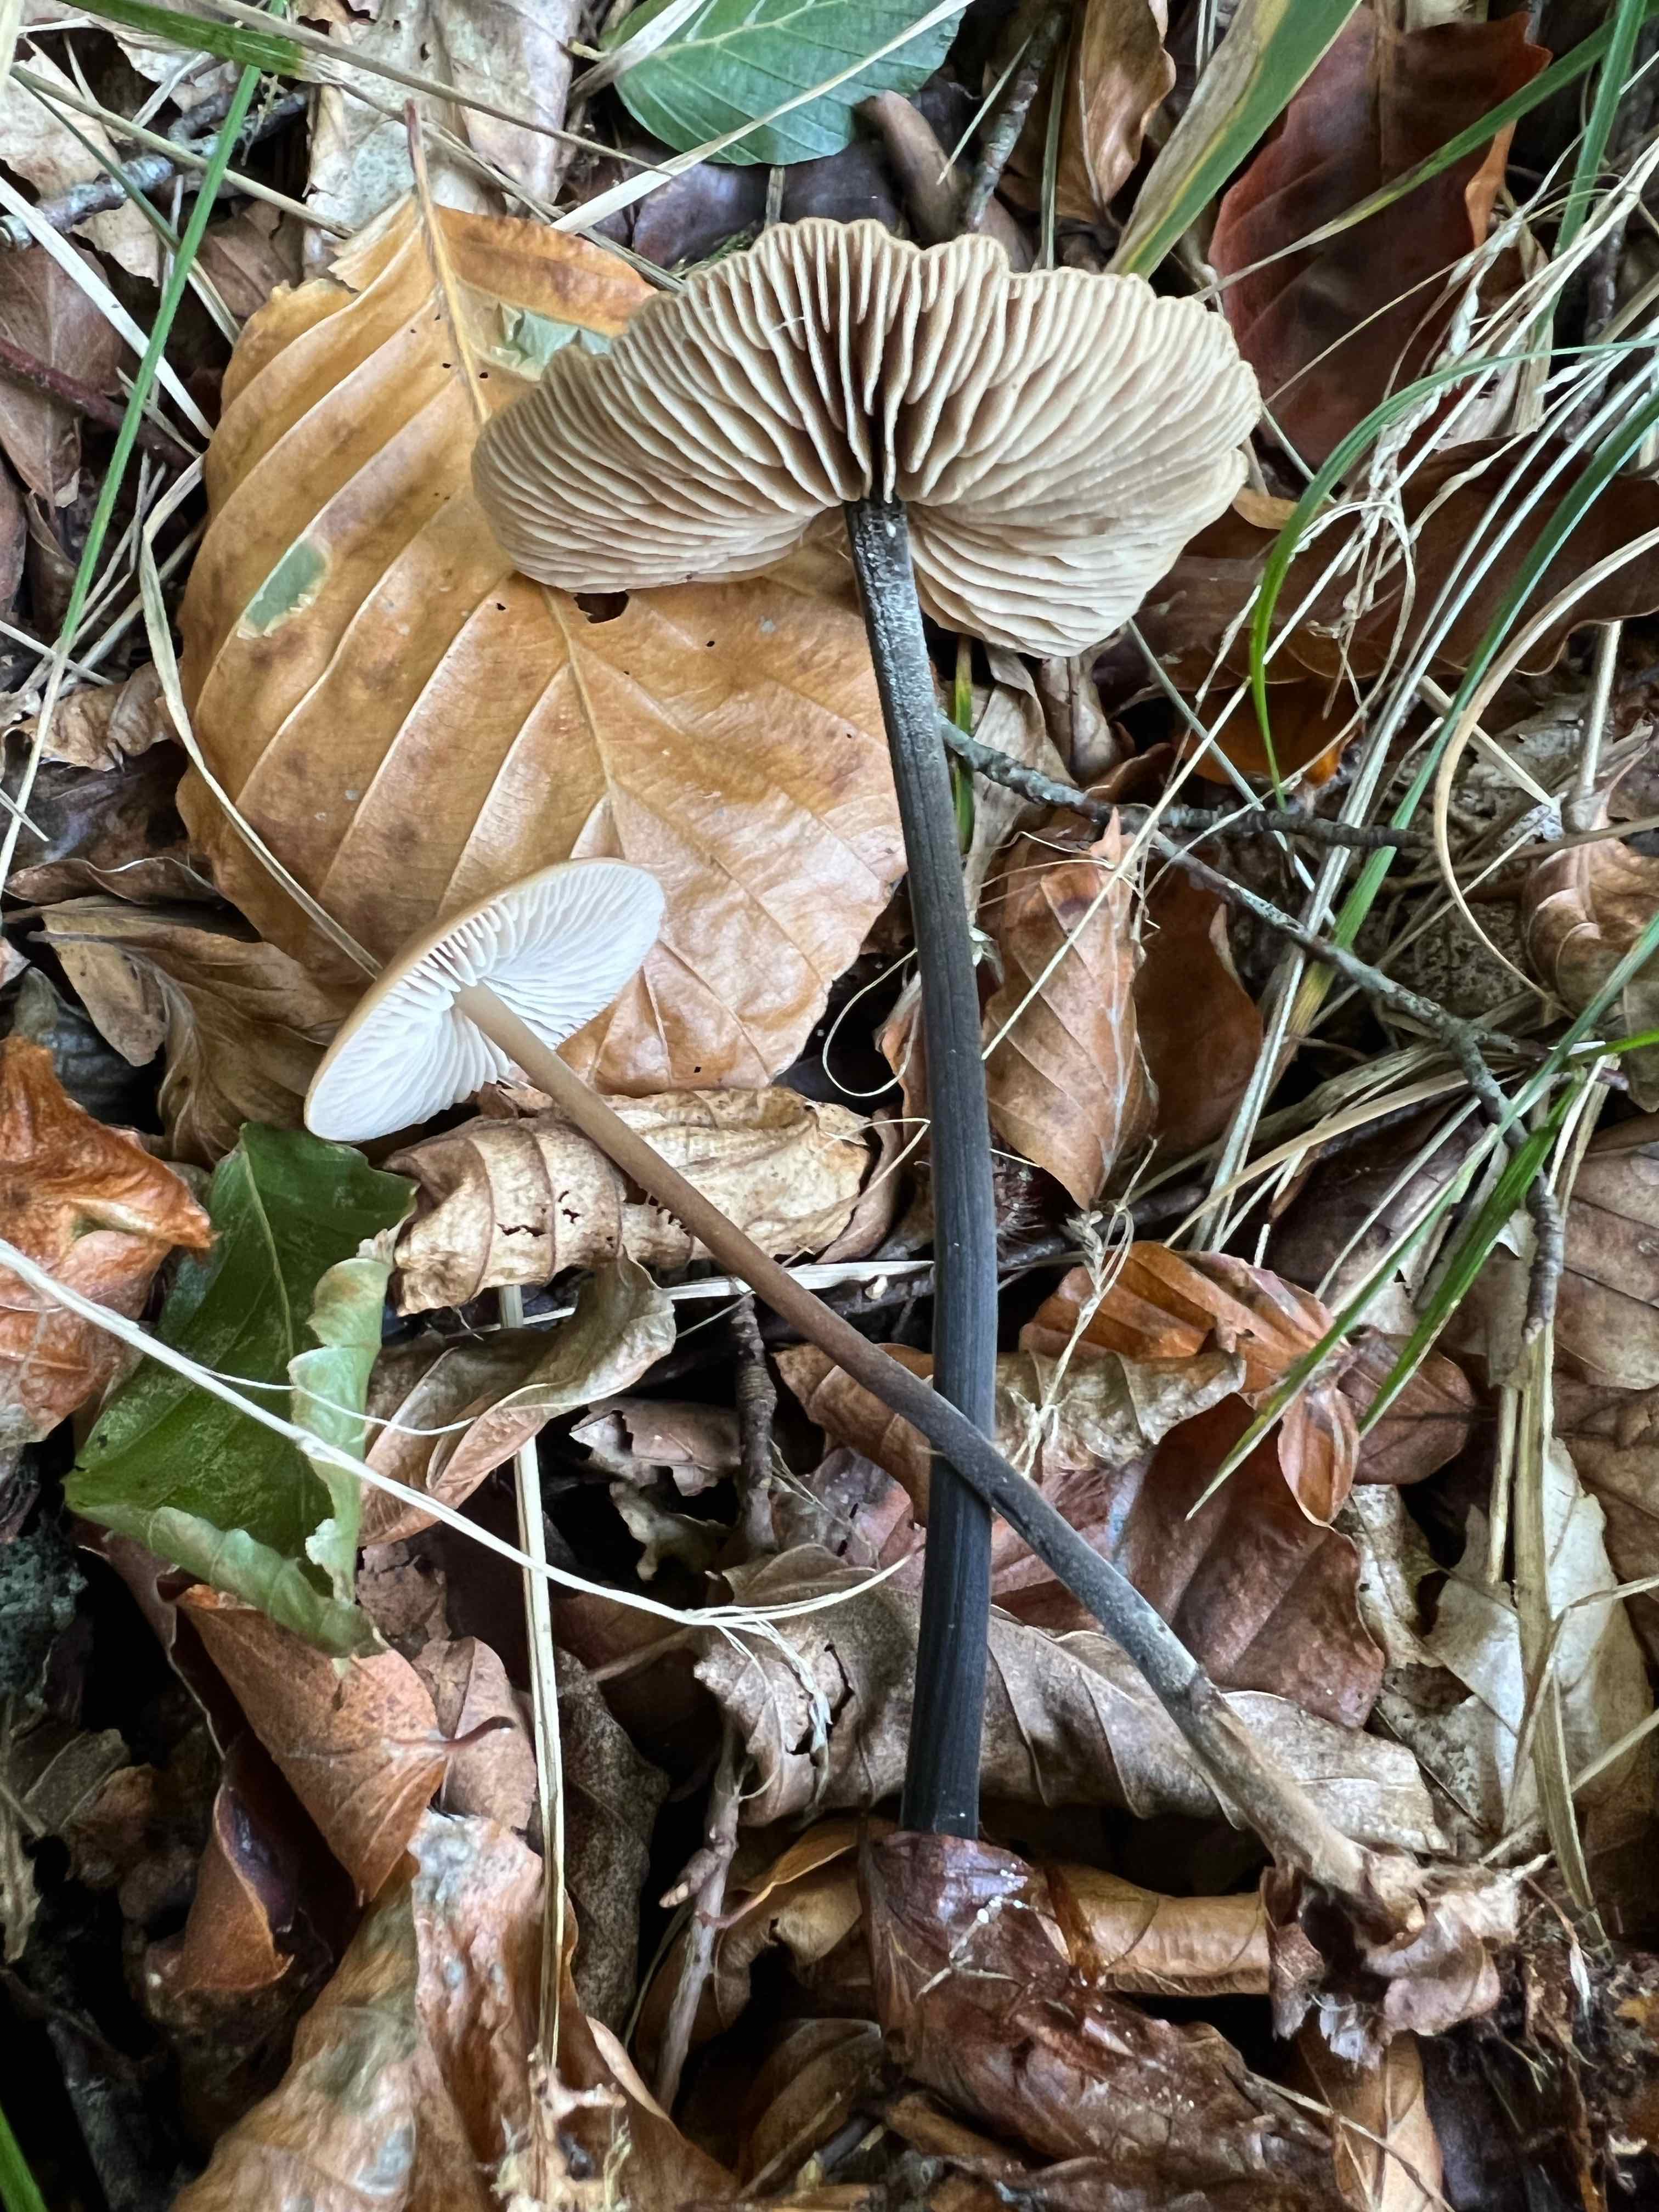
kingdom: Fungi
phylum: Basidiomycota
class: Agaricomycetes
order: Agaricales
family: Omphalotaceae
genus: Mycetinis
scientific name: Mycetinis alliaceus
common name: stor løghat
